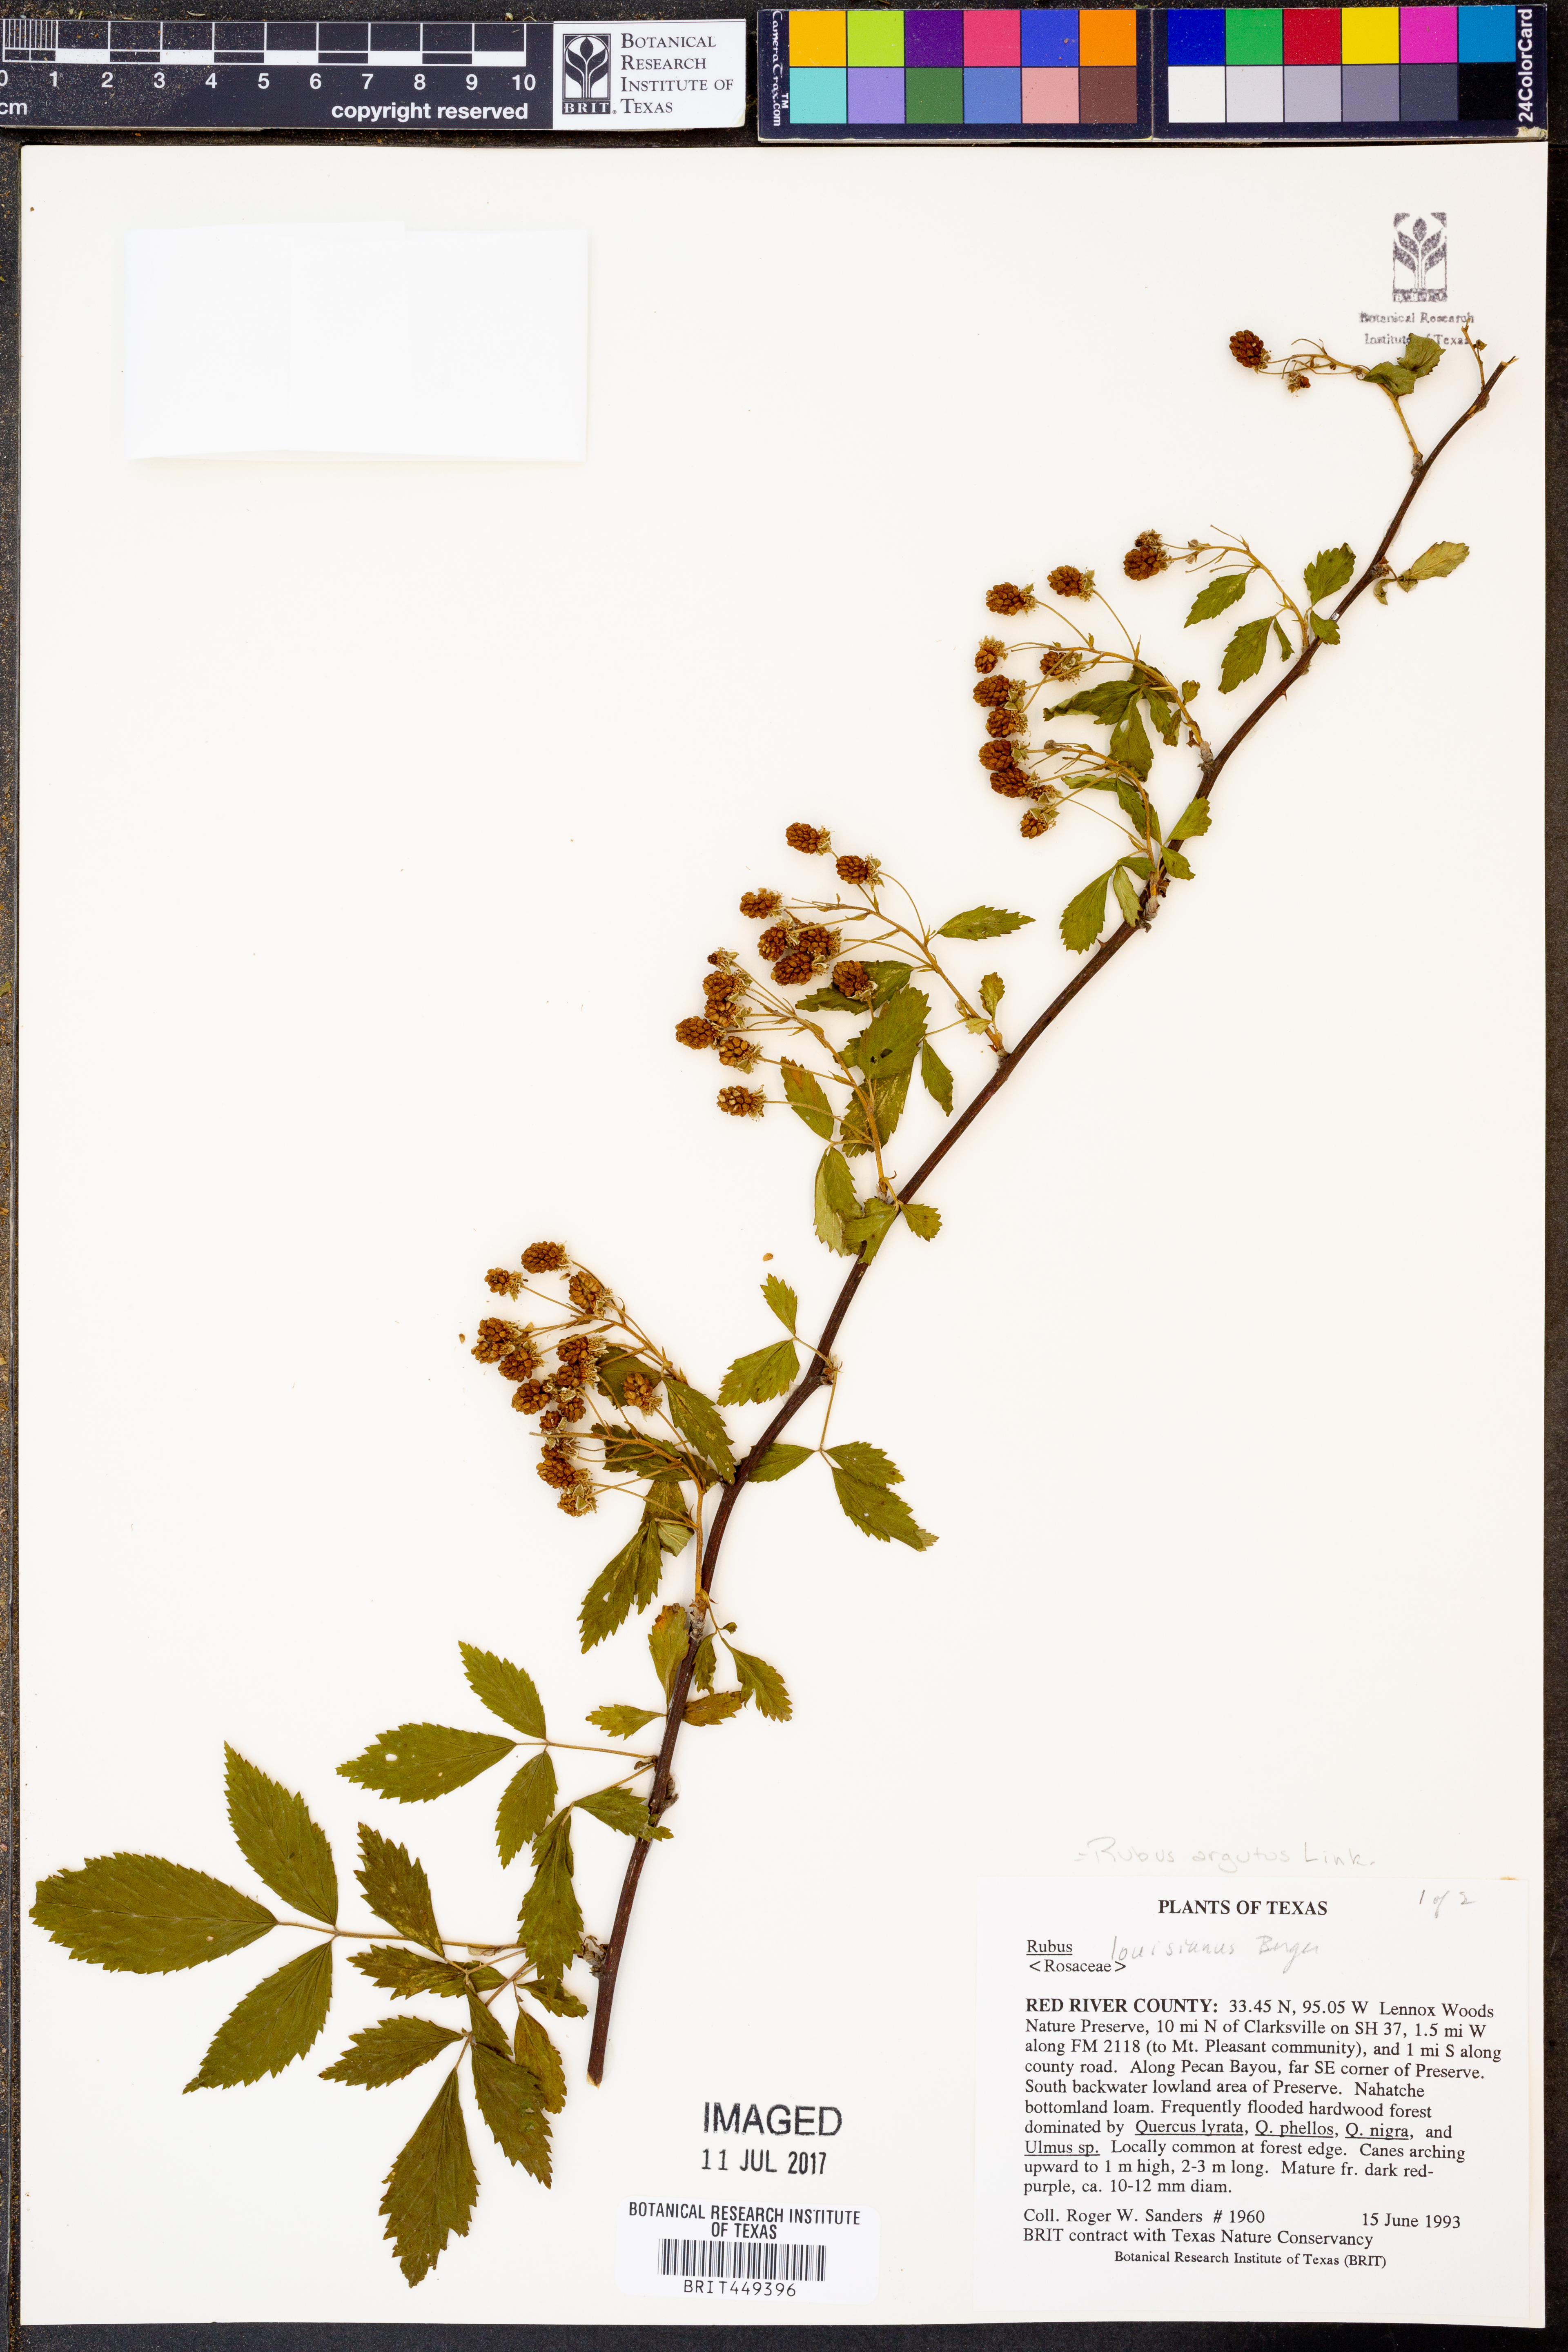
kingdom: Plantae
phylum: Tracheophyta
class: Magnoliopsida
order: Rosales
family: Rosaceae
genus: Rubus
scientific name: Rubus argutus
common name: Sawtooth blackberry
